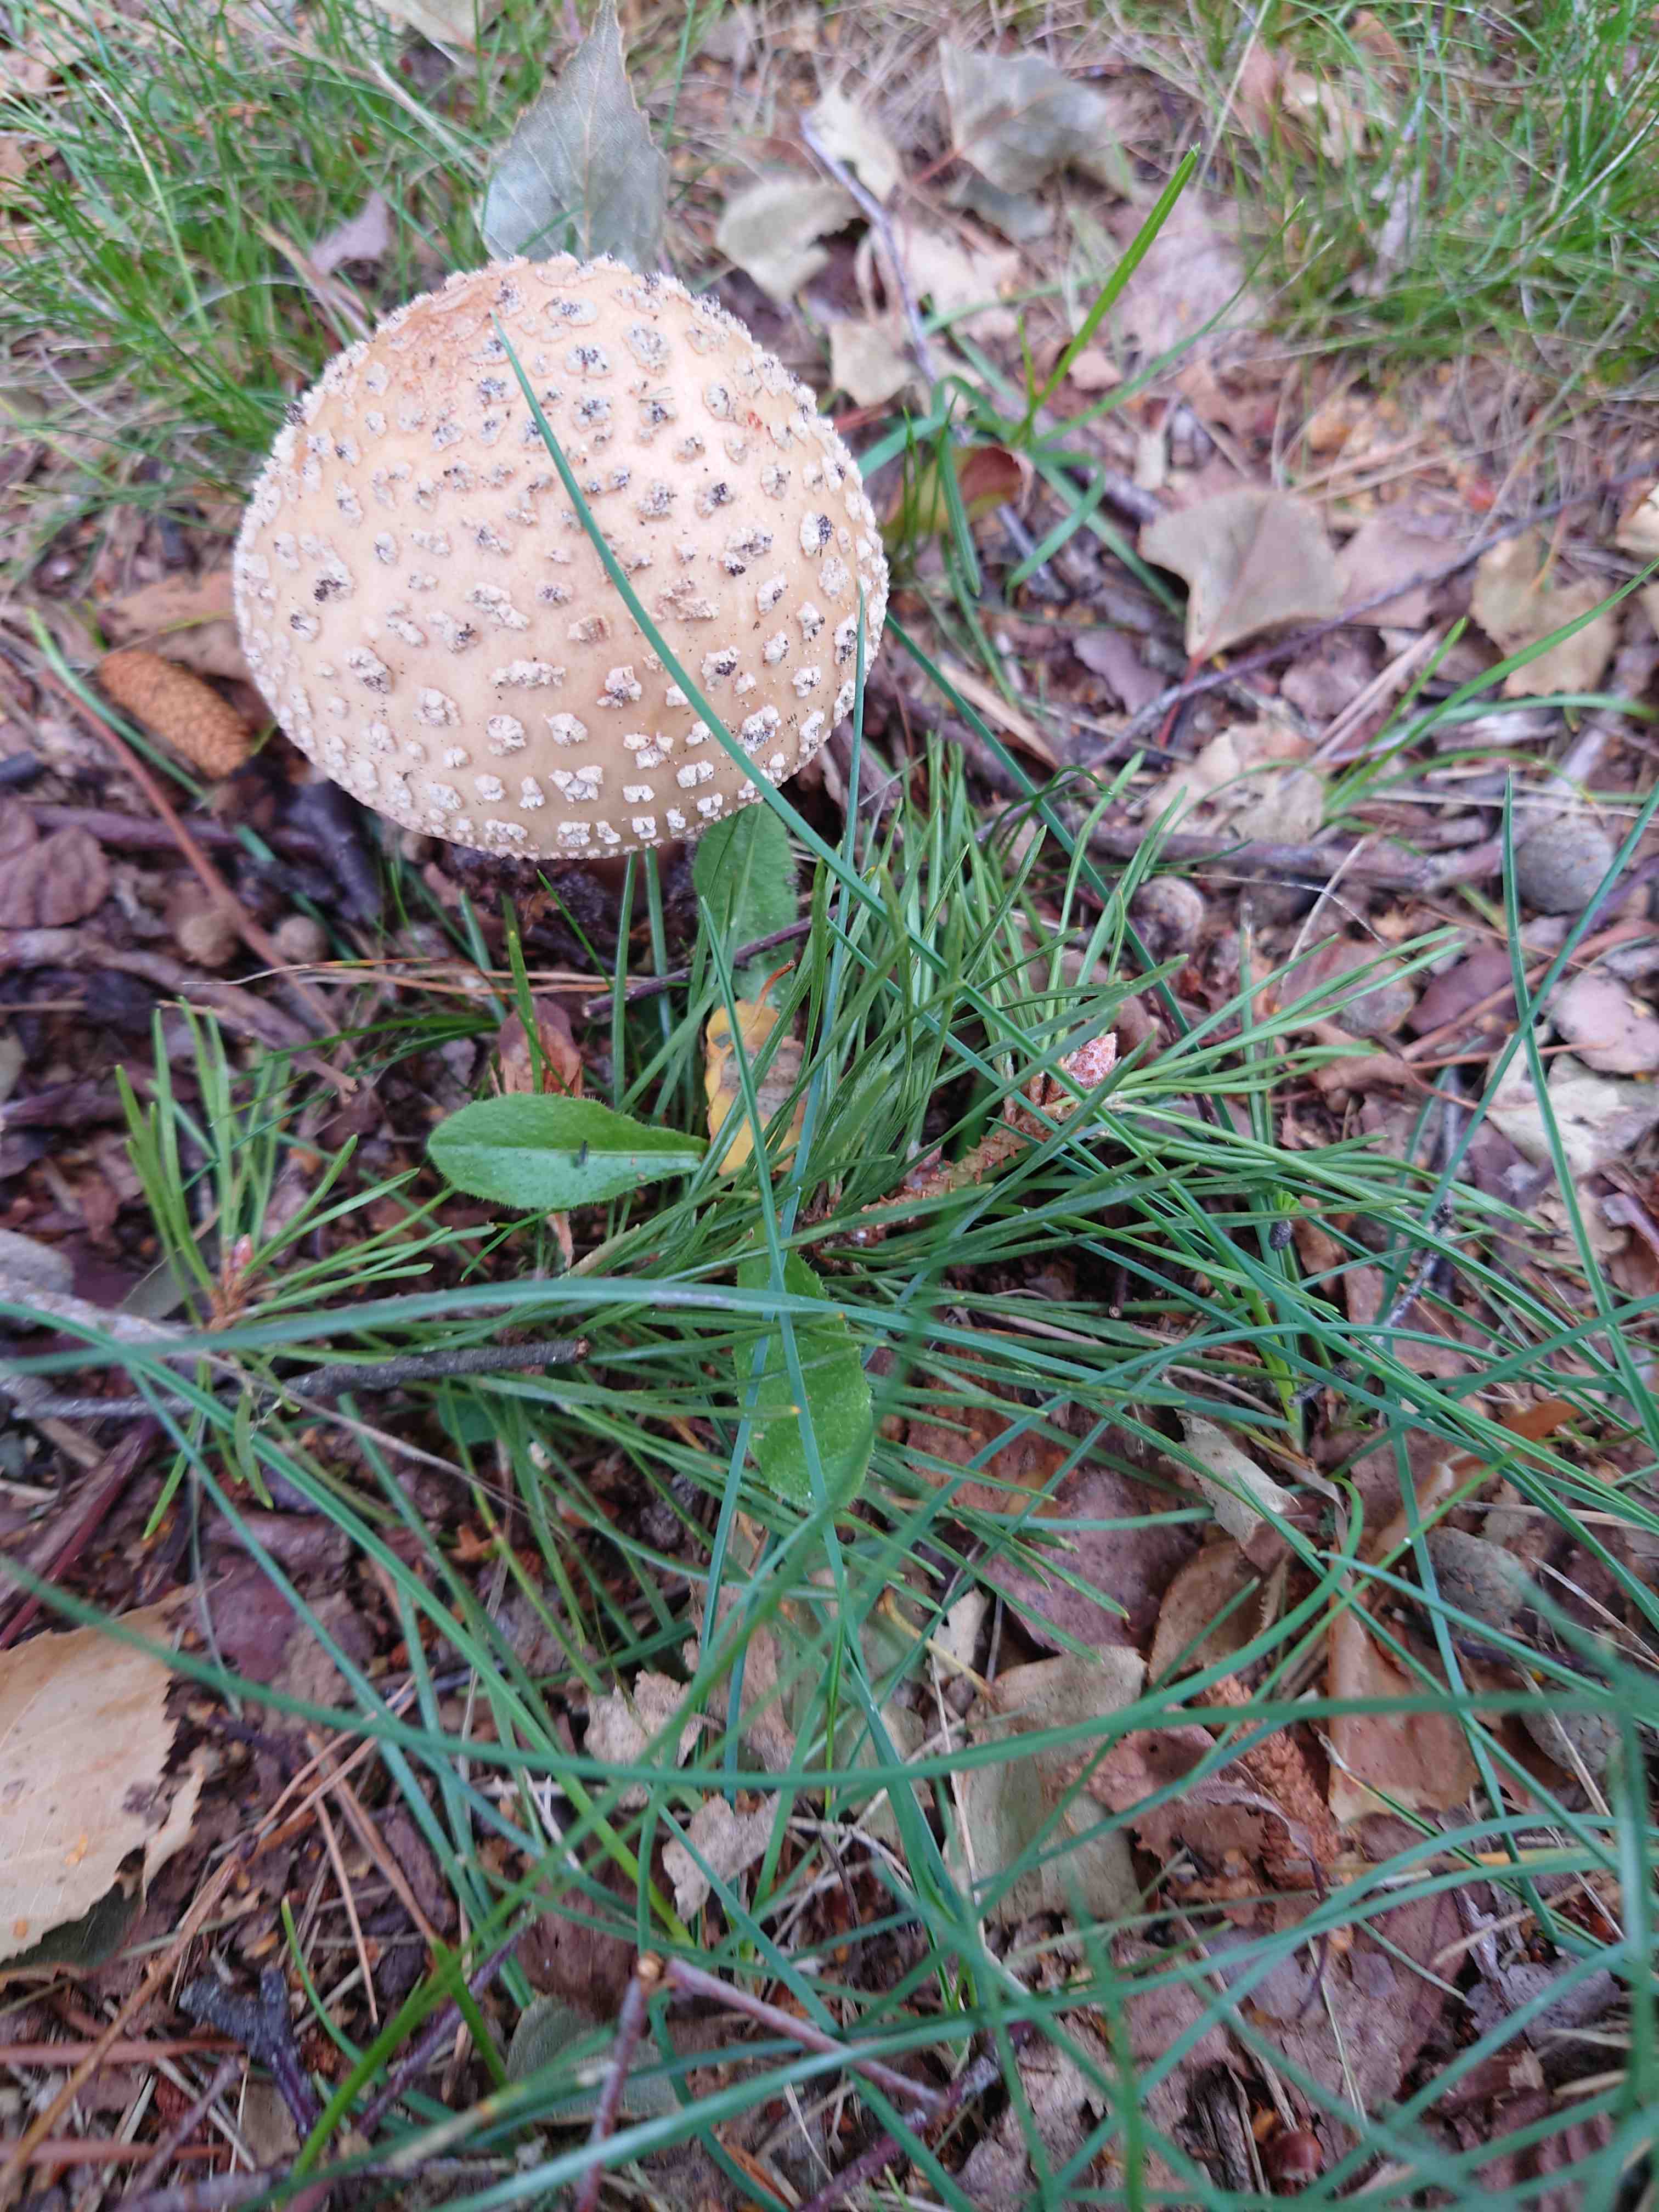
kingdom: Fungi
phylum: Basidiomycota
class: Agaricomycetes
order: Agaricales
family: Amanitaceae
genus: Amanita
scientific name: Amanita rubescens
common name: rødmende fluesvamp
